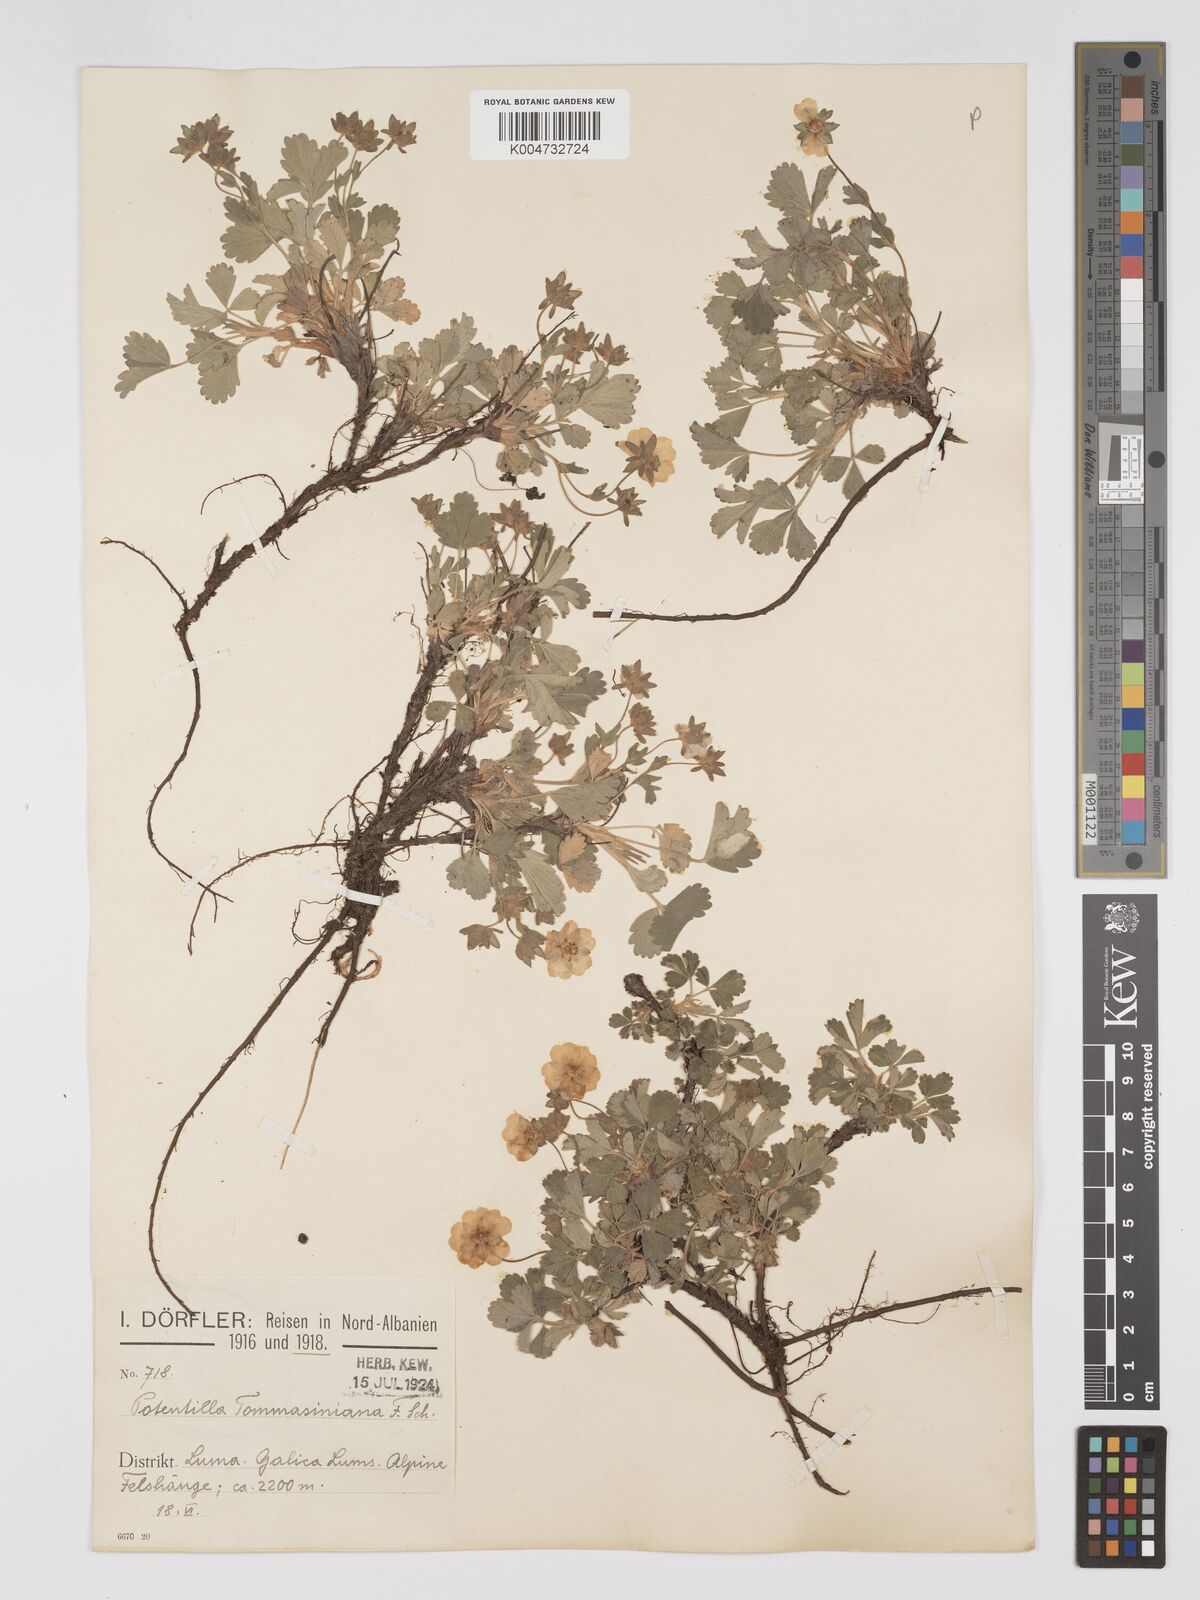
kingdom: Plantae
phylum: Tracheophyta
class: Magnoliopsida
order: Rosales
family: Rosaceae
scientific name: Rosaceae
